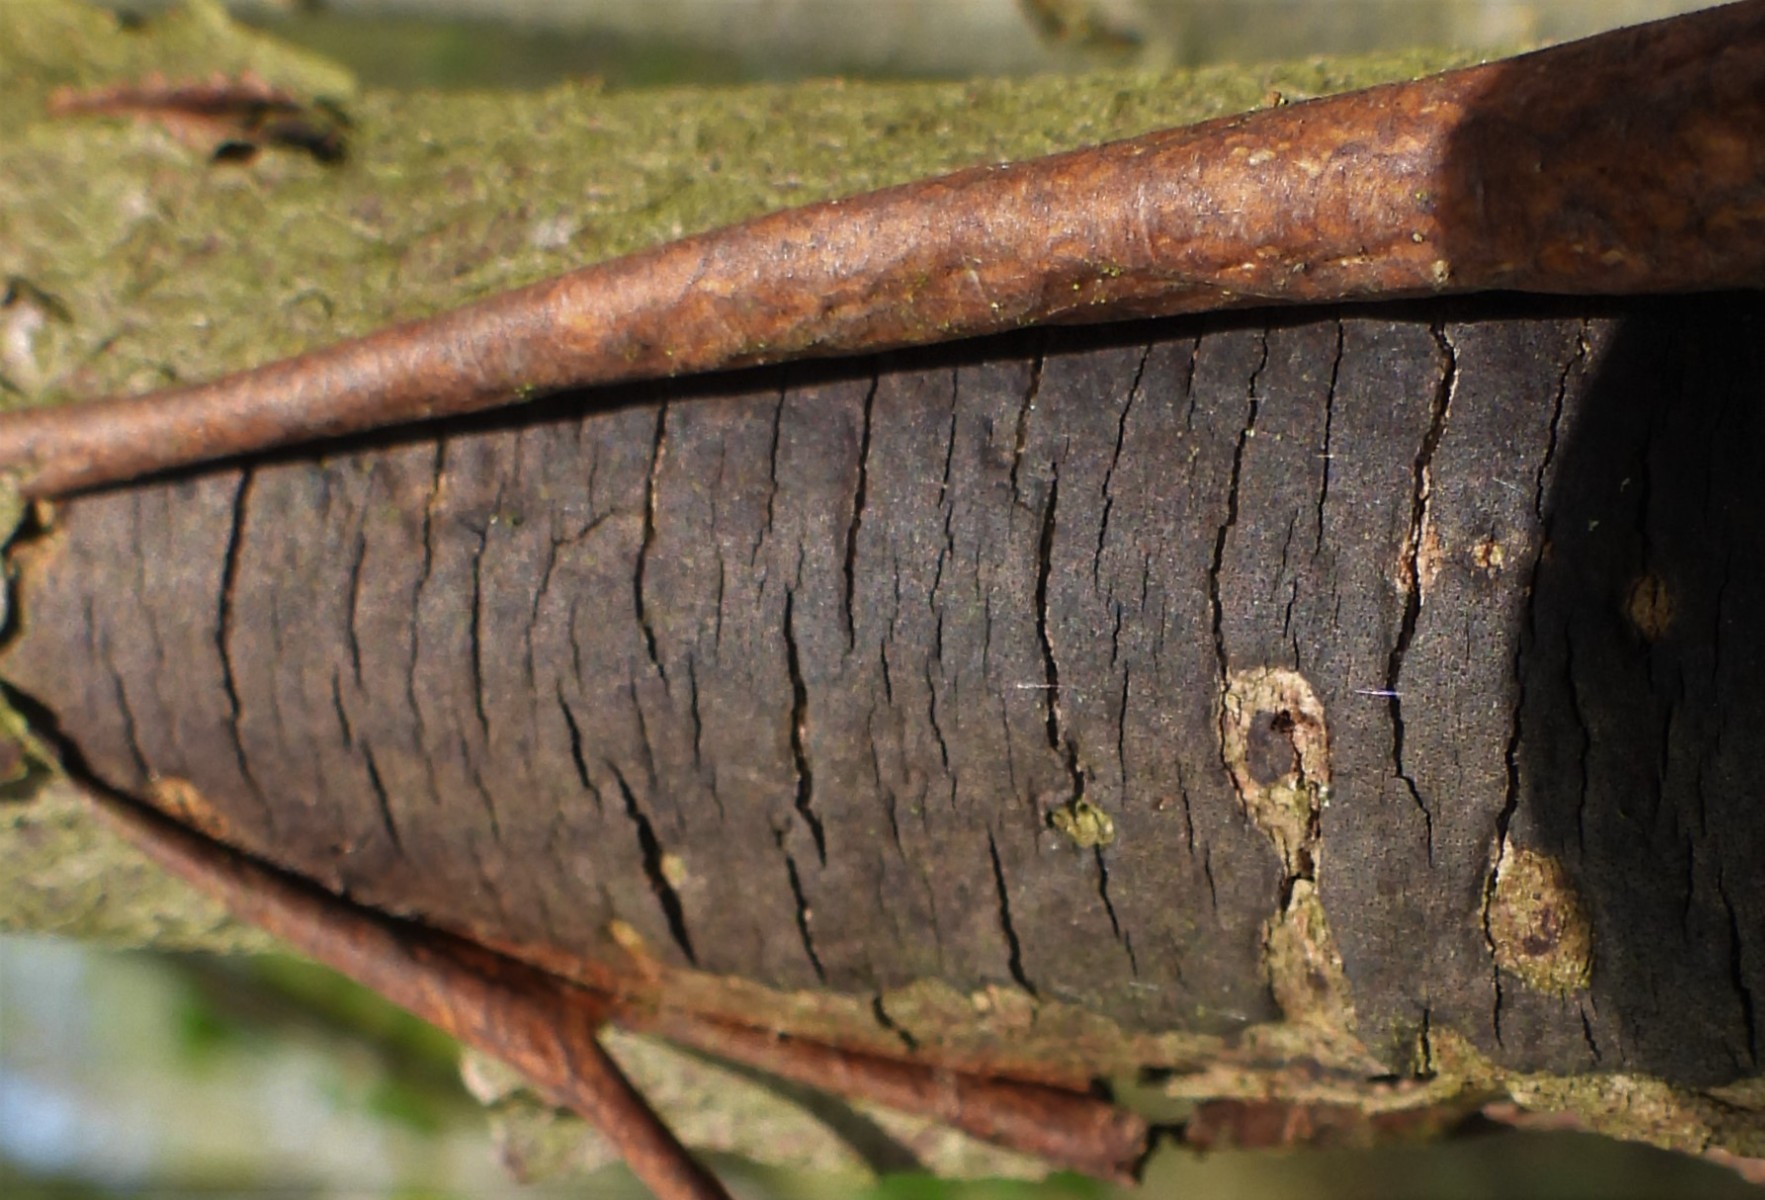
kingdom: Fungi
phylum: Ascomycota
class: Sordariomycetes
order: Xylariales
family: Diatrypaceae
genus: Diatrype
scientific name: Diatrype decorticata
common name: barksprænger-kulskorpe
